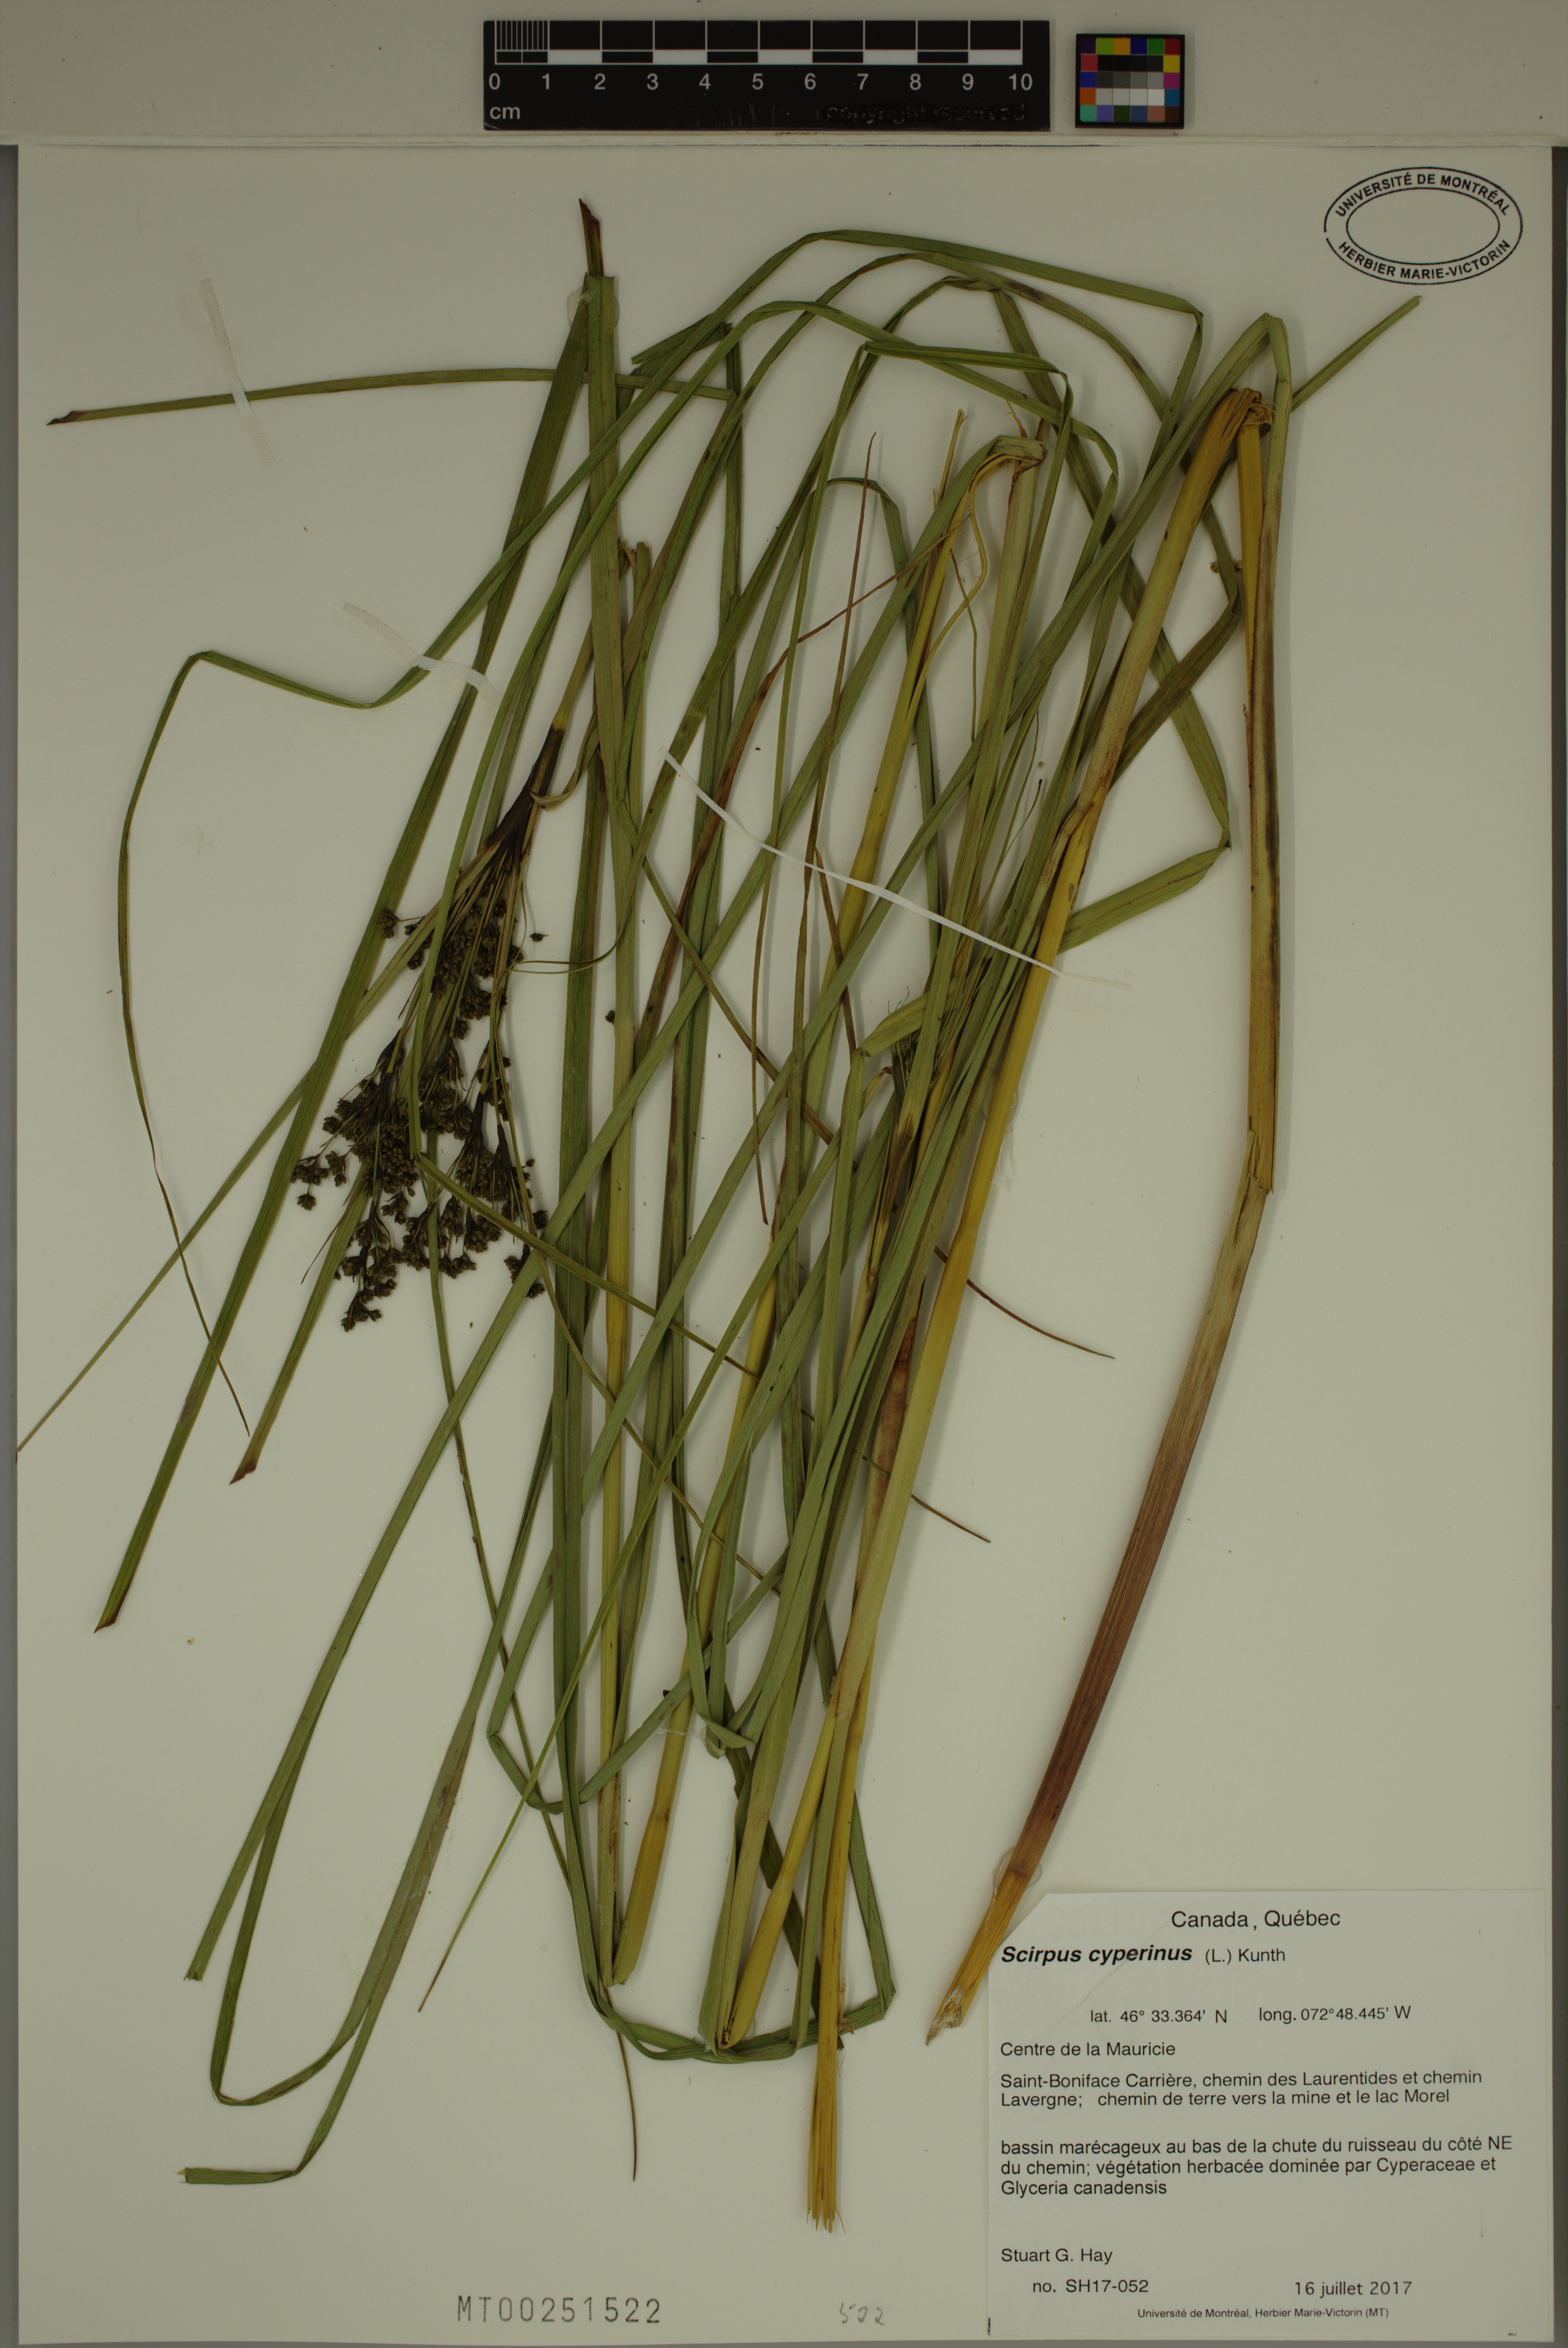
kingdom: Plantae
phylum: Tracheophyta
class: Liliopsida
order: Poales
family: Cyperaceae
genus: Scirpus
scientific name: Scirpus cyperinus
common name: Black-sheathed bulrush
